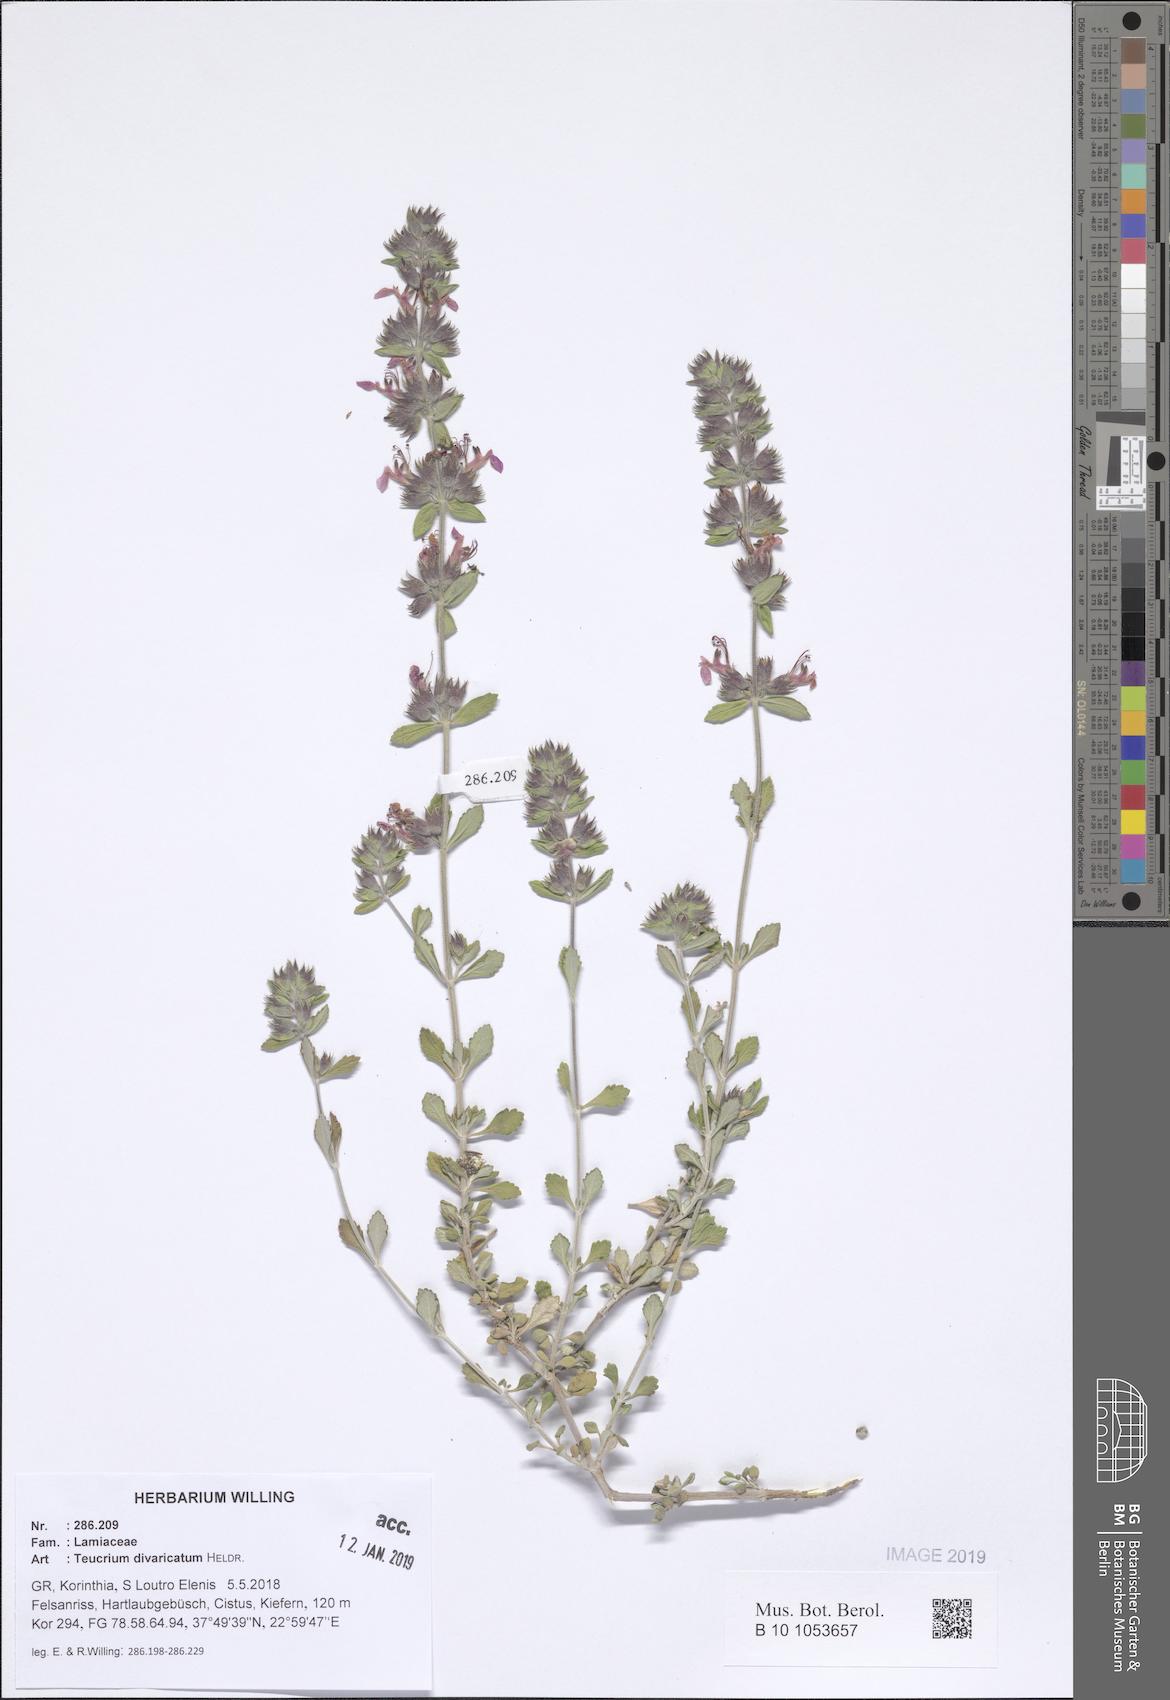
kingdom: Plantae
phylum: Tracheophyta
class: Magnoliopsida
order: Lamiales
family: Lamiaceae
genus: Teucrium
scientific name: Teucrium divaricatum
